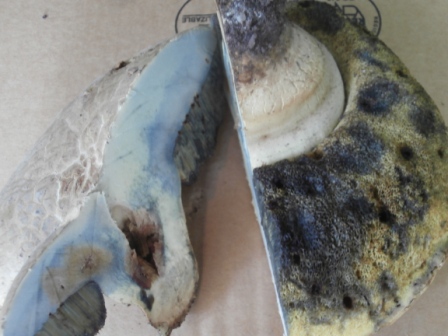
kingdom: Fungi
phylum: Basidiomycota
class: Agaricomycetes
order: Boletales
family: Boletaceae
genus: Caloboletus
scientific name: Caloboletus radicans
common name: rod-rørhat
